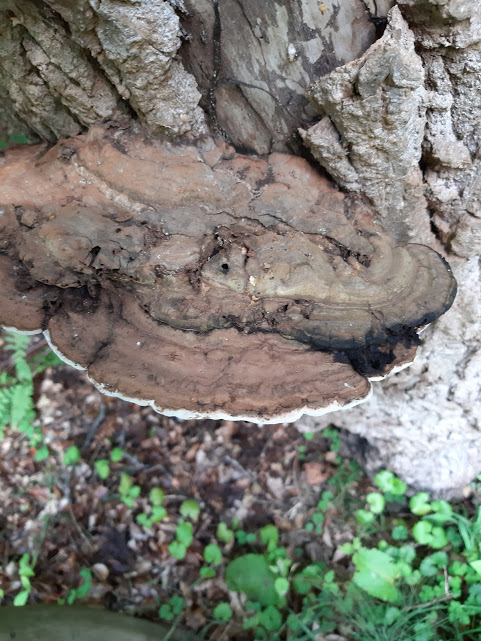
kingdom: Fungi
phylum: Basidiomycota
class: Agaricomycetes
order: Polyporales
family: Polyporaceae
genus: Ganoderma
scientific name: Ganoderma applanatum
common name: flad lakporesvamp
